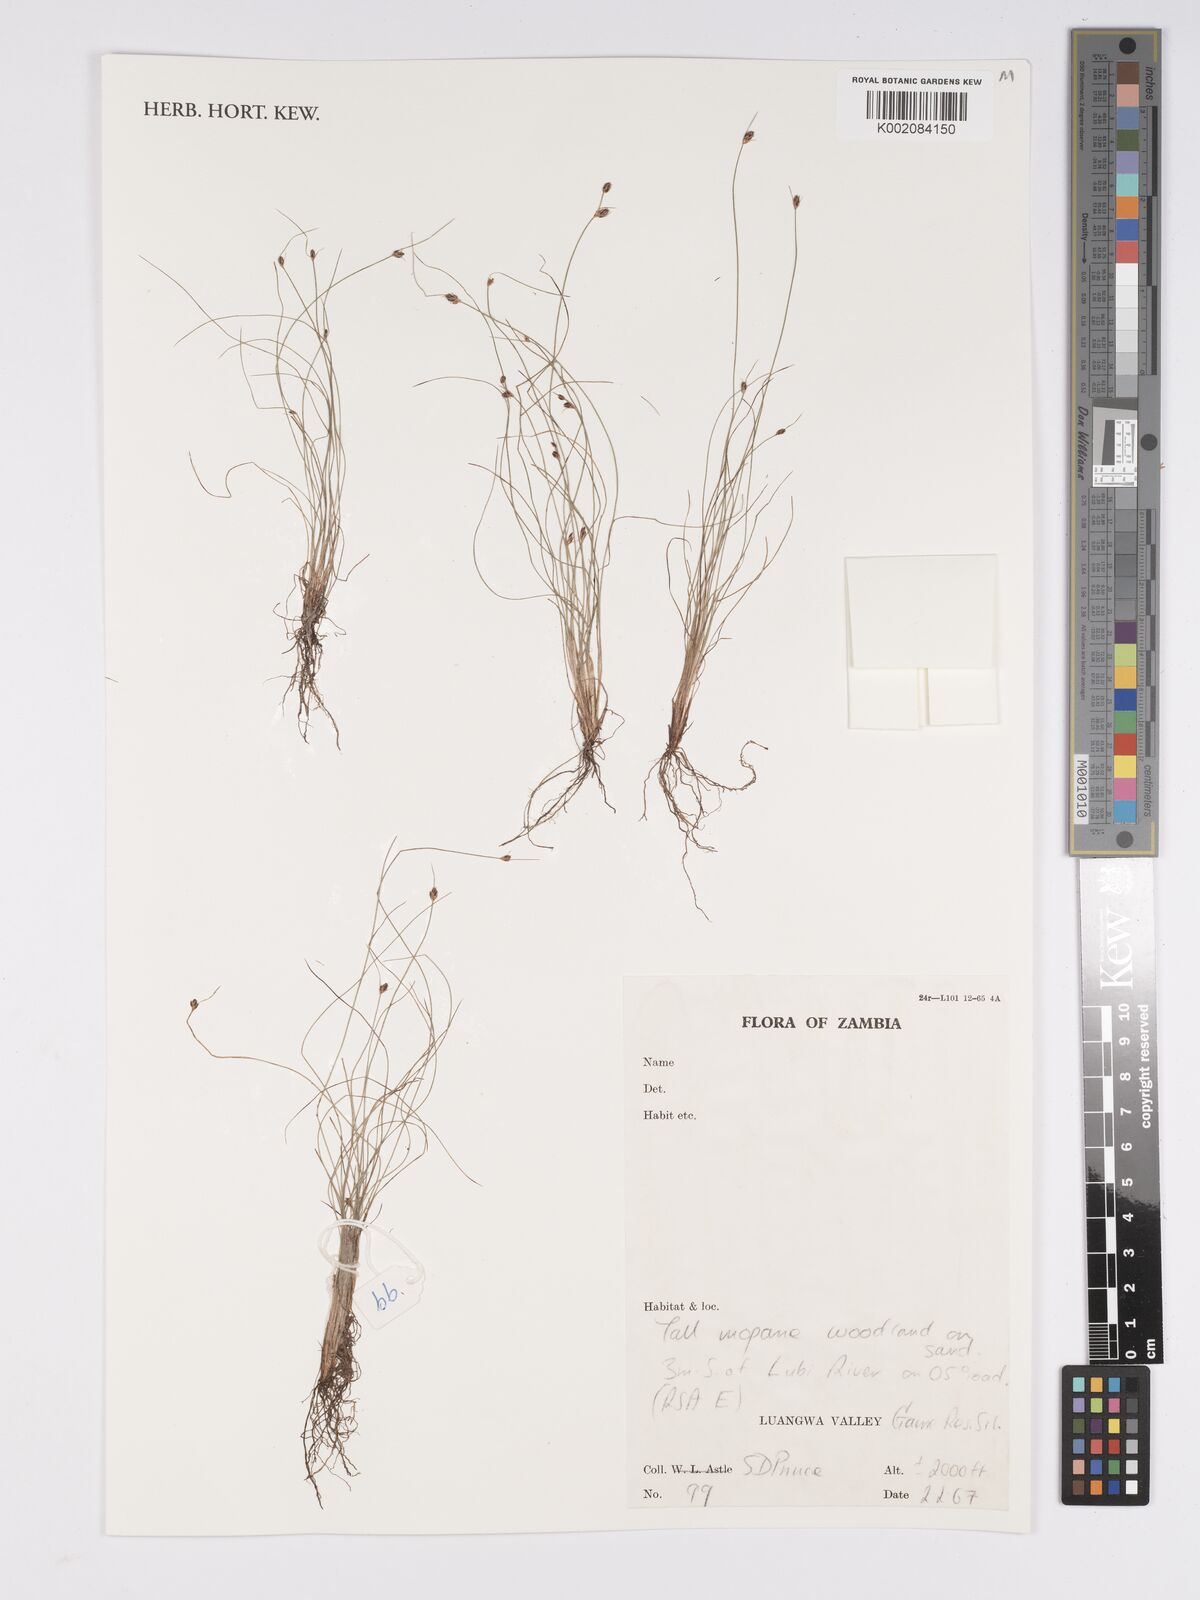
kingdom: Plantae
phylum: Tracheophyta
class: Liliopsida
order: Poales
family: Cyperaceae
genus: Bulbostylis
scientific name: Bulbostylis
